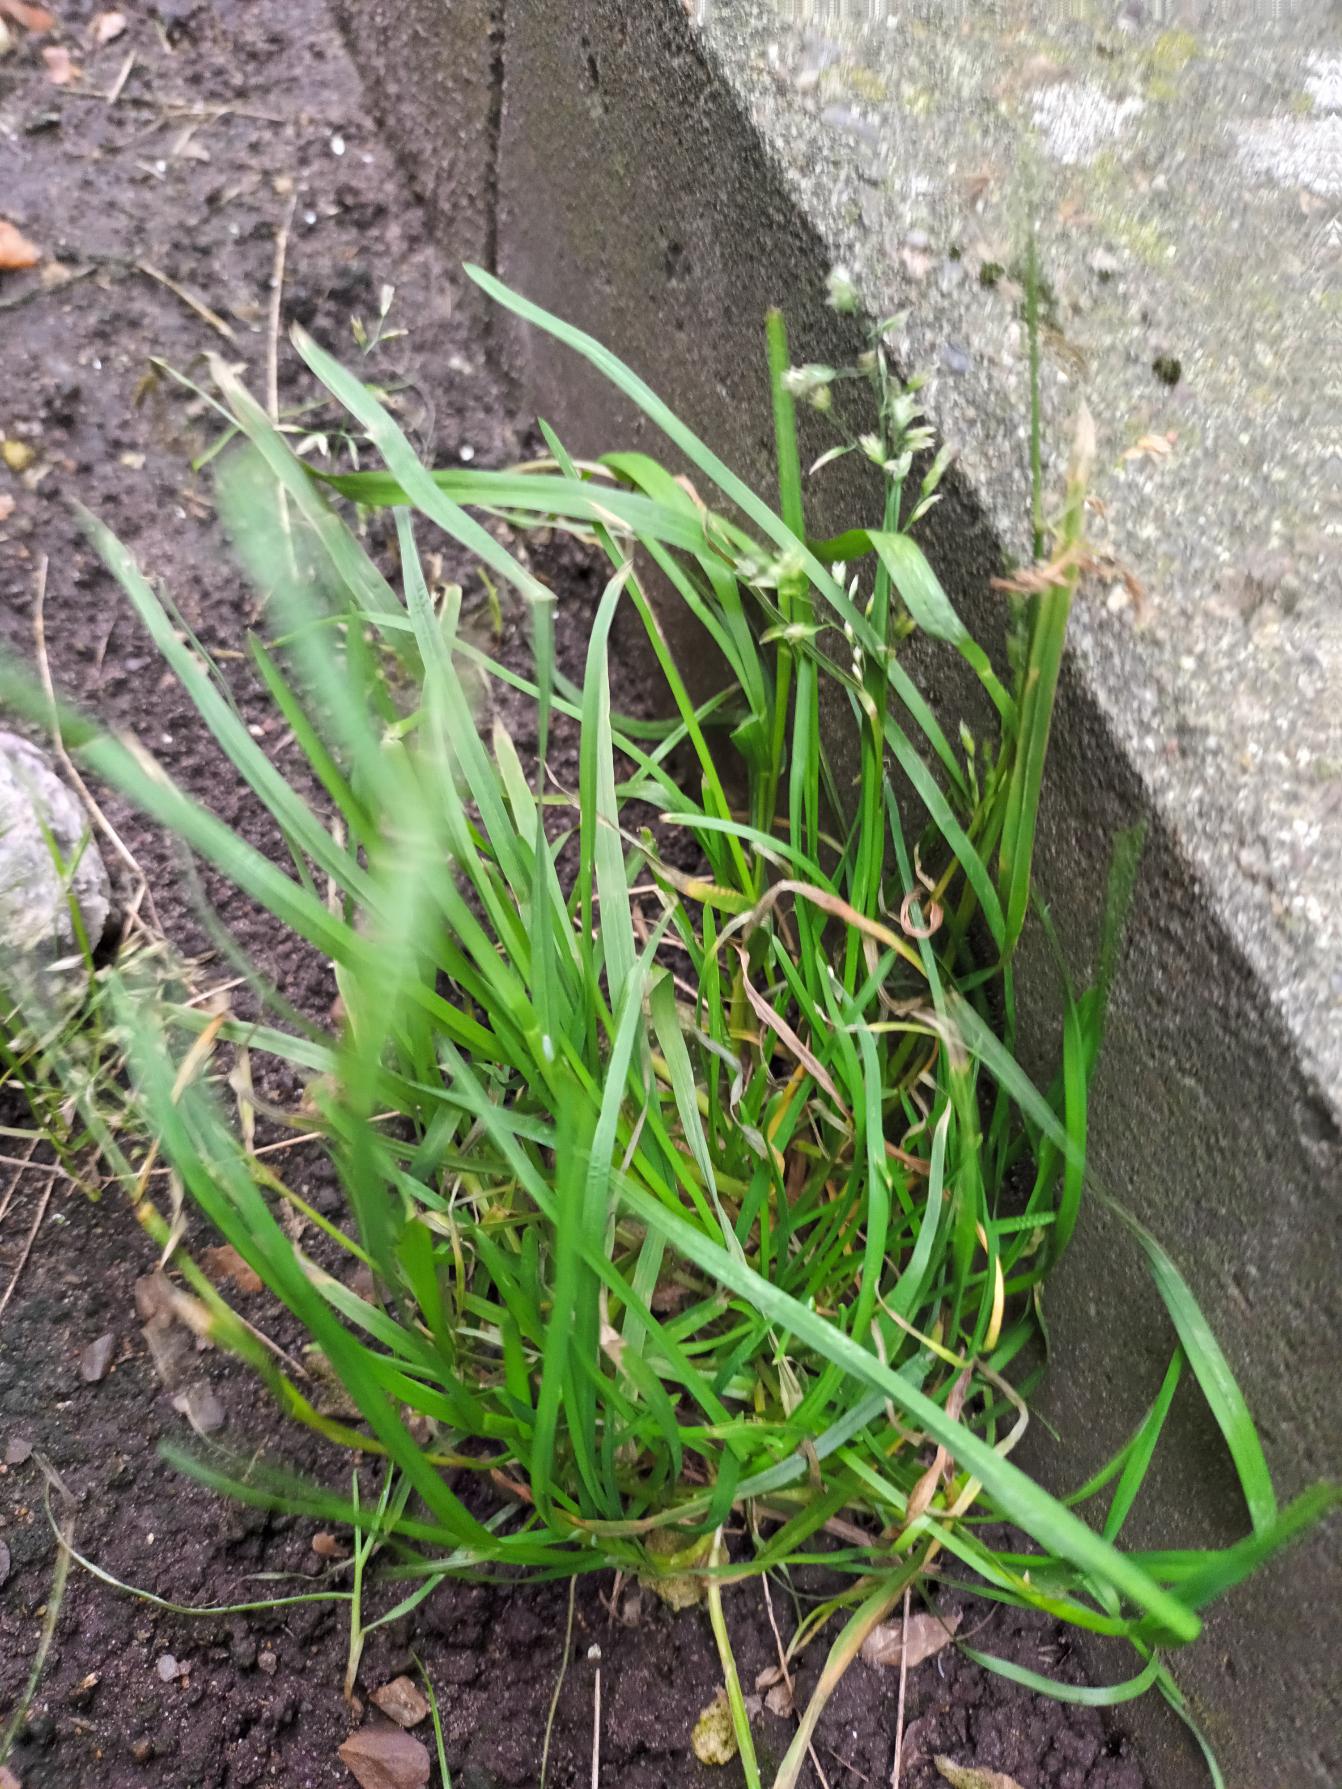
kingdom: Plantae
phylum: Tracheophyta
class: Liliopsida
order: Poales
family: Poaceae
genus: Poa
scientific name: Poa annua
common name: Enårig rapgræs
